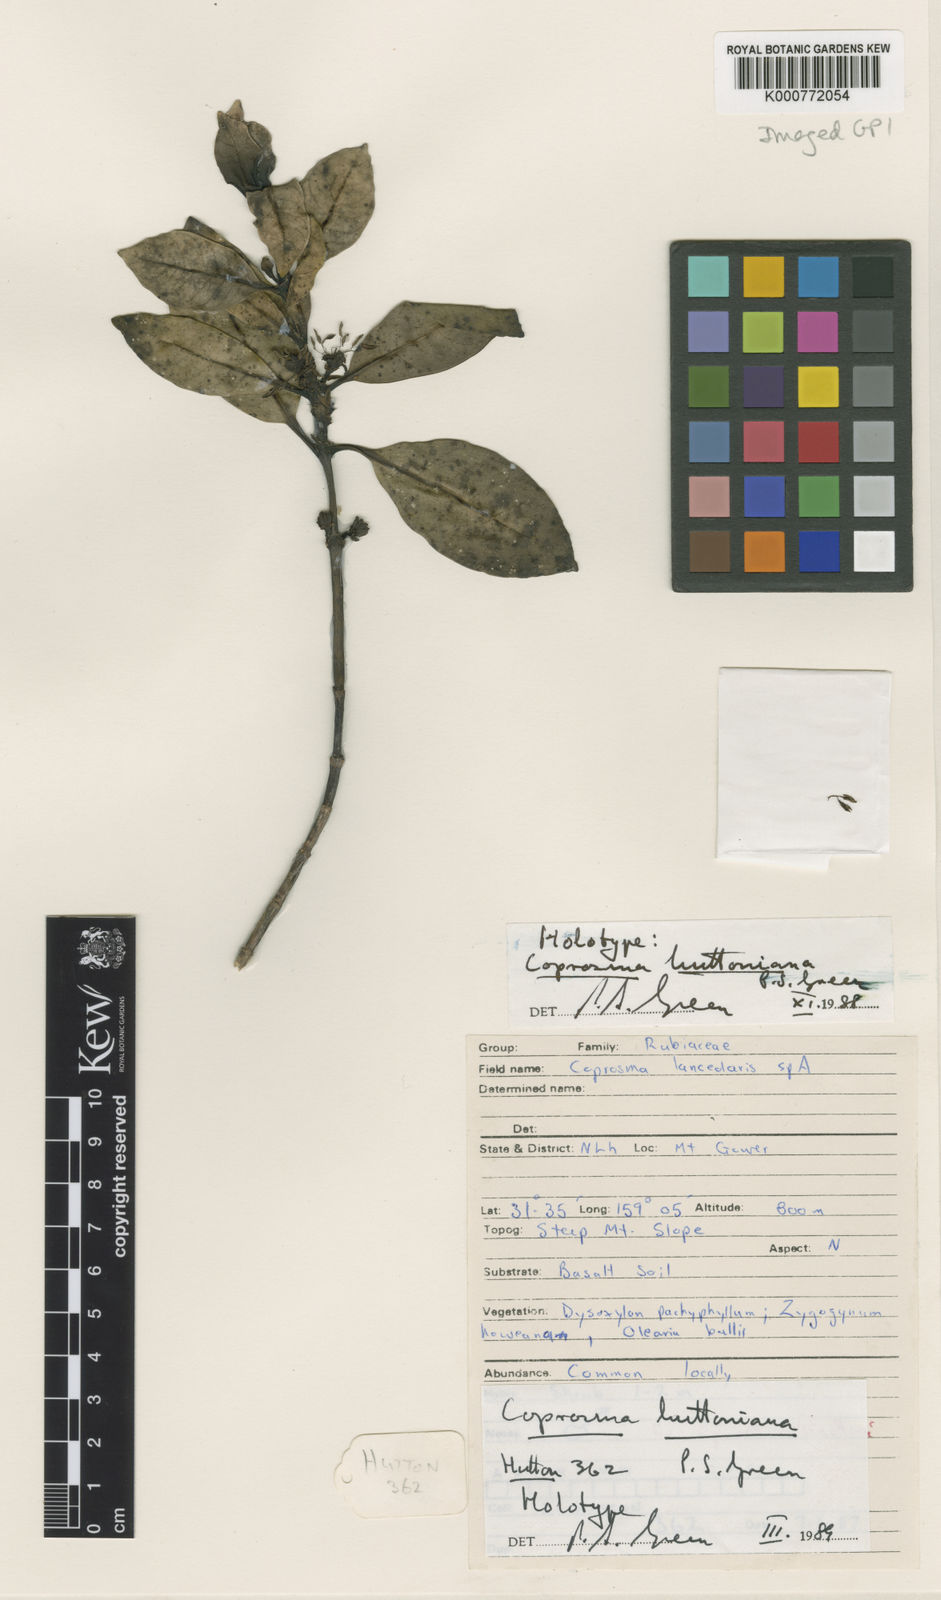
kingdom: Plantae
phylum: Tracheophyta
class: Magnoliopsida
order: Gentianales
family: Rubiaceae
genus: Coprosma
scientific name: Coprosma huttoniana
